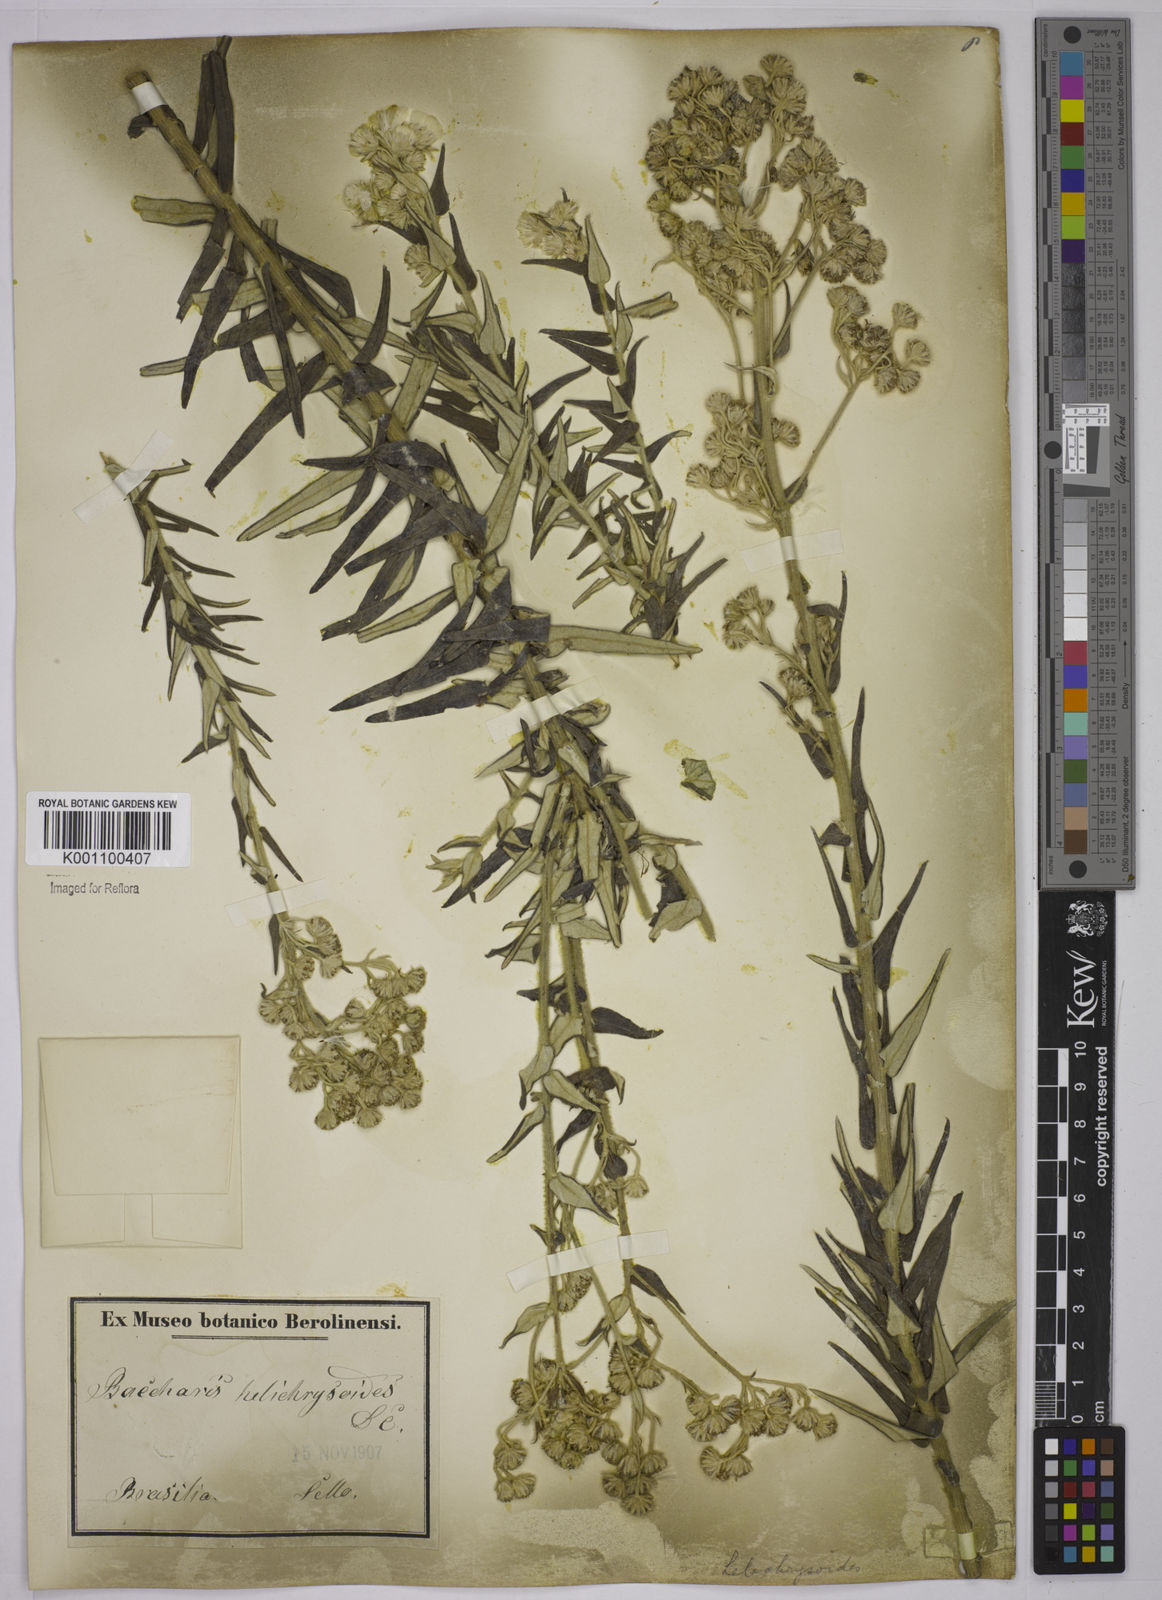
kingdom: Plantae
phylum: Tracheophyta
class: Magnoliopsida
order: Asterales
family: Asteraceae
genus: Baccharis
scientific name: Baccharis helichrysoides
